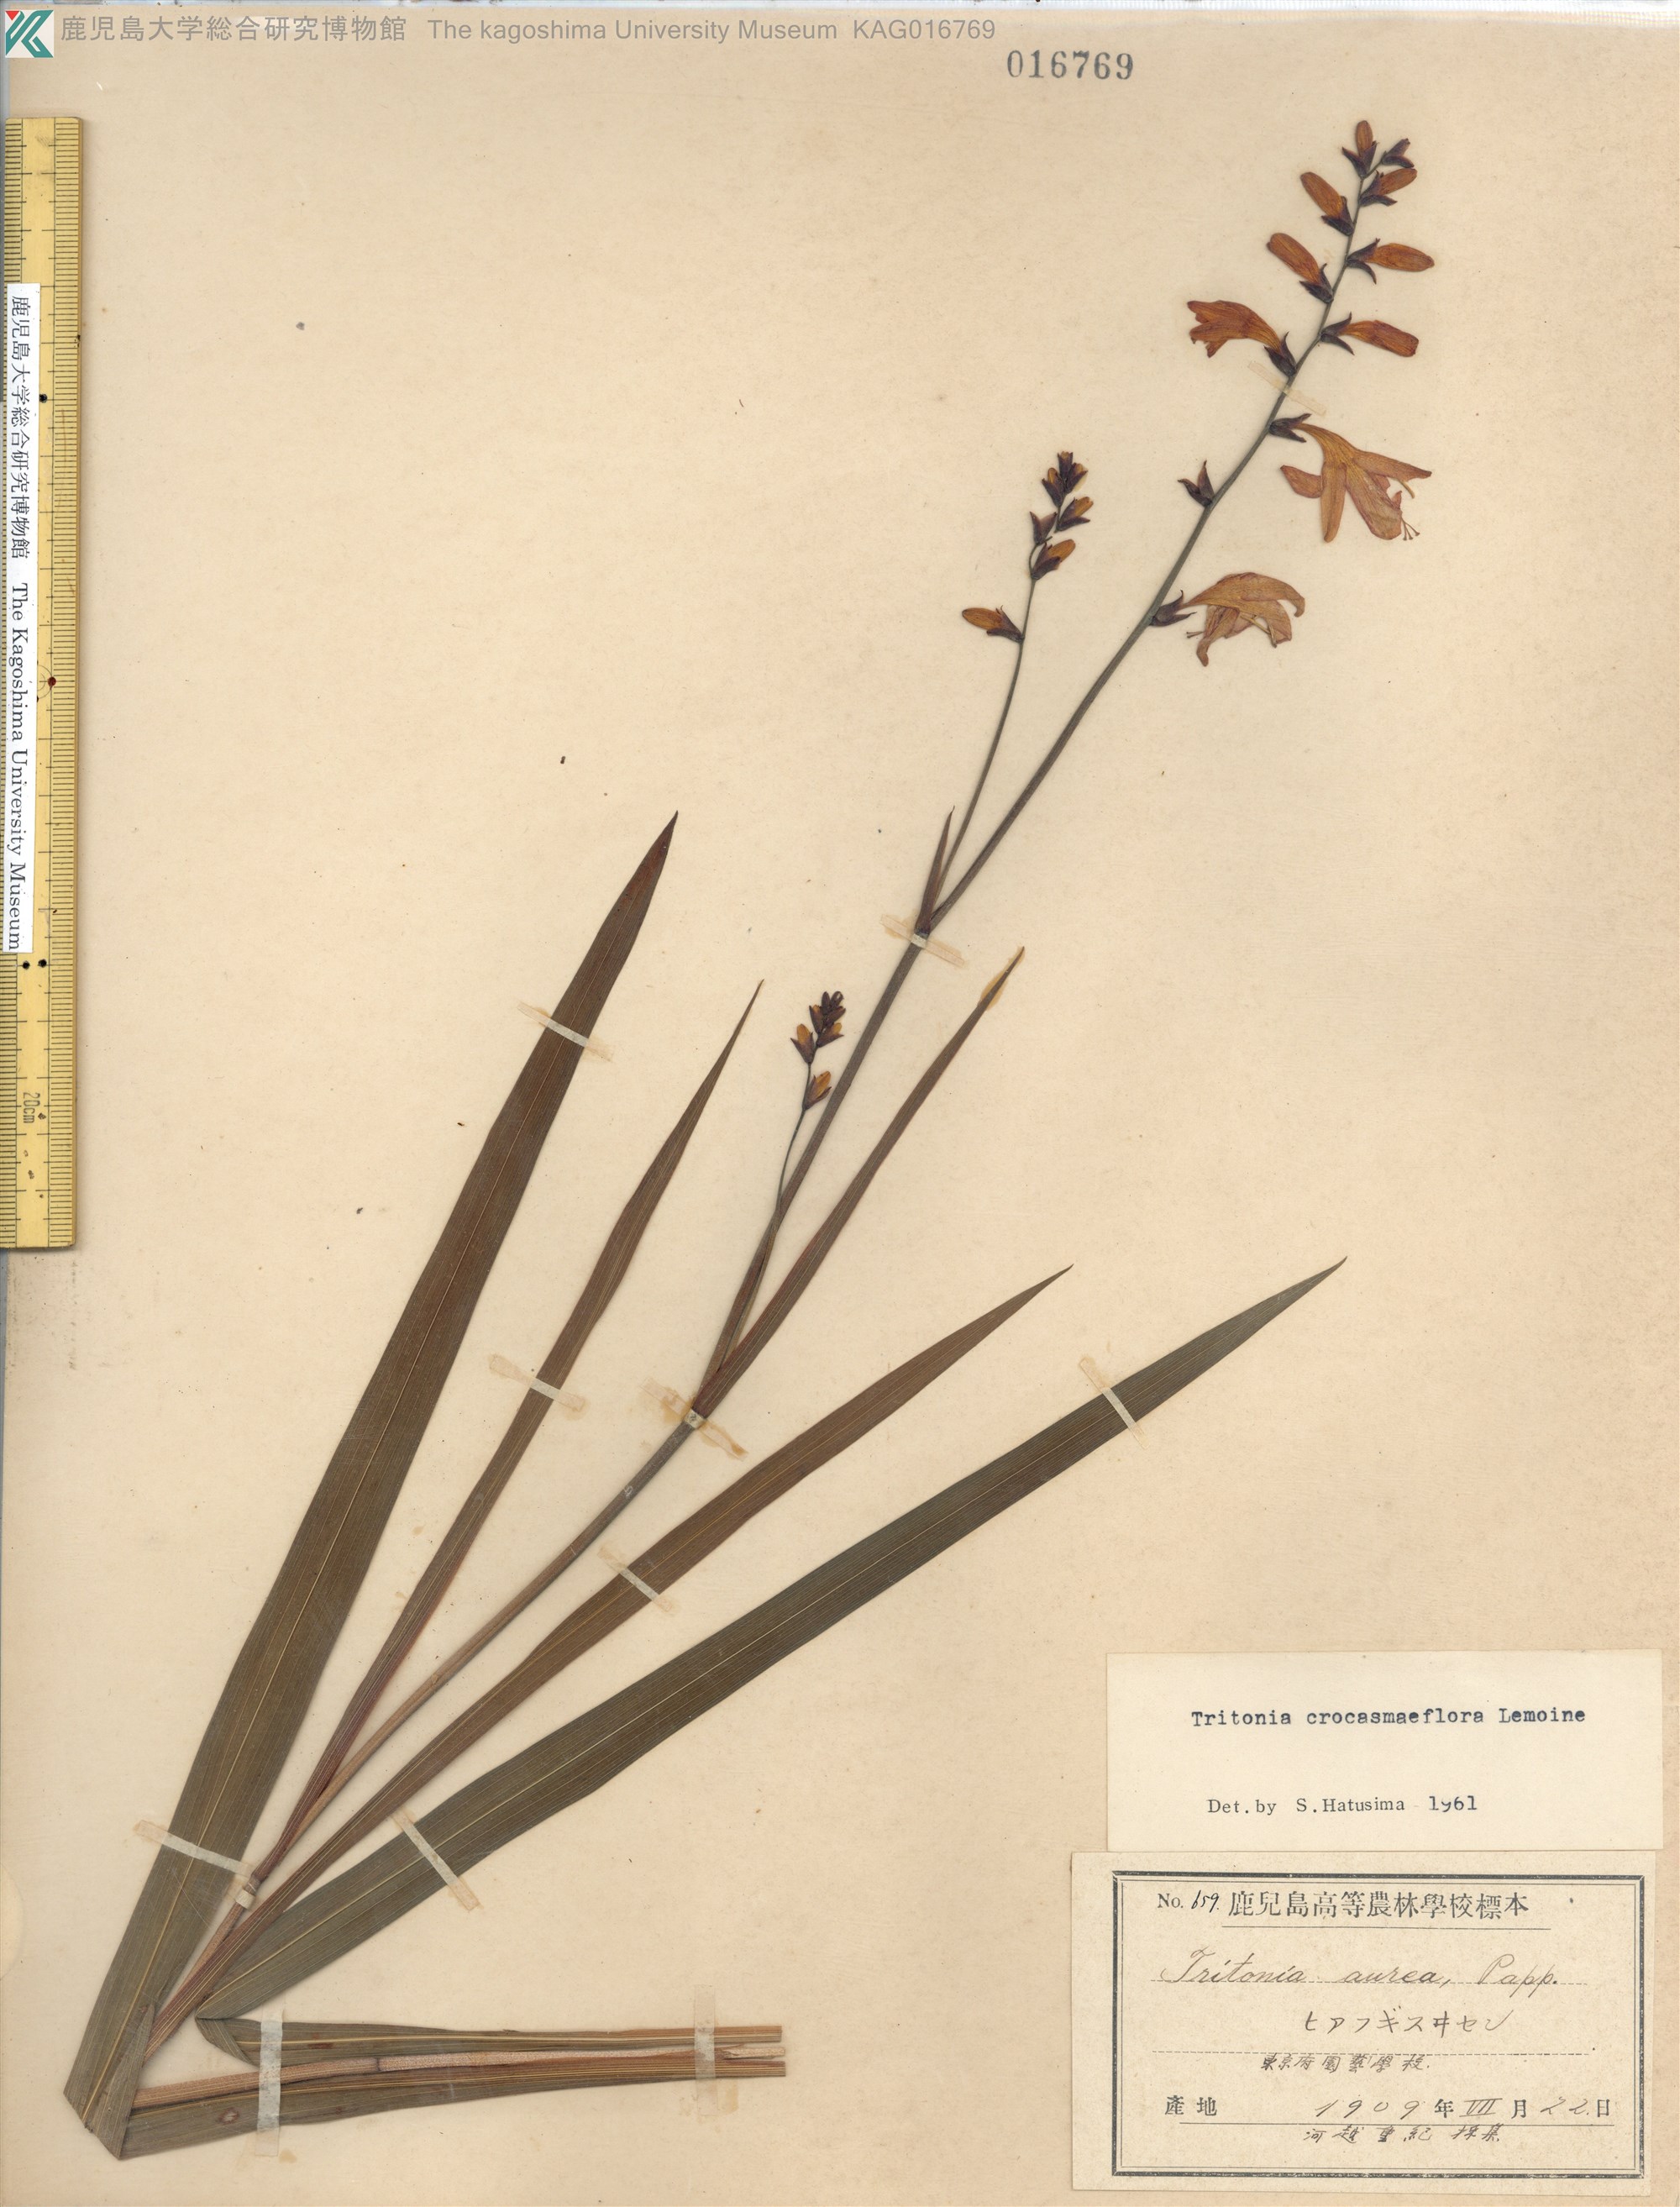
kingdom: Plantae
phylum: Tracheophyta
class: Liliopsida
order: Asparagales
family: Iridaceae
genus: Crocosmia
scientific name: Crocosmia crocosmiiflora
